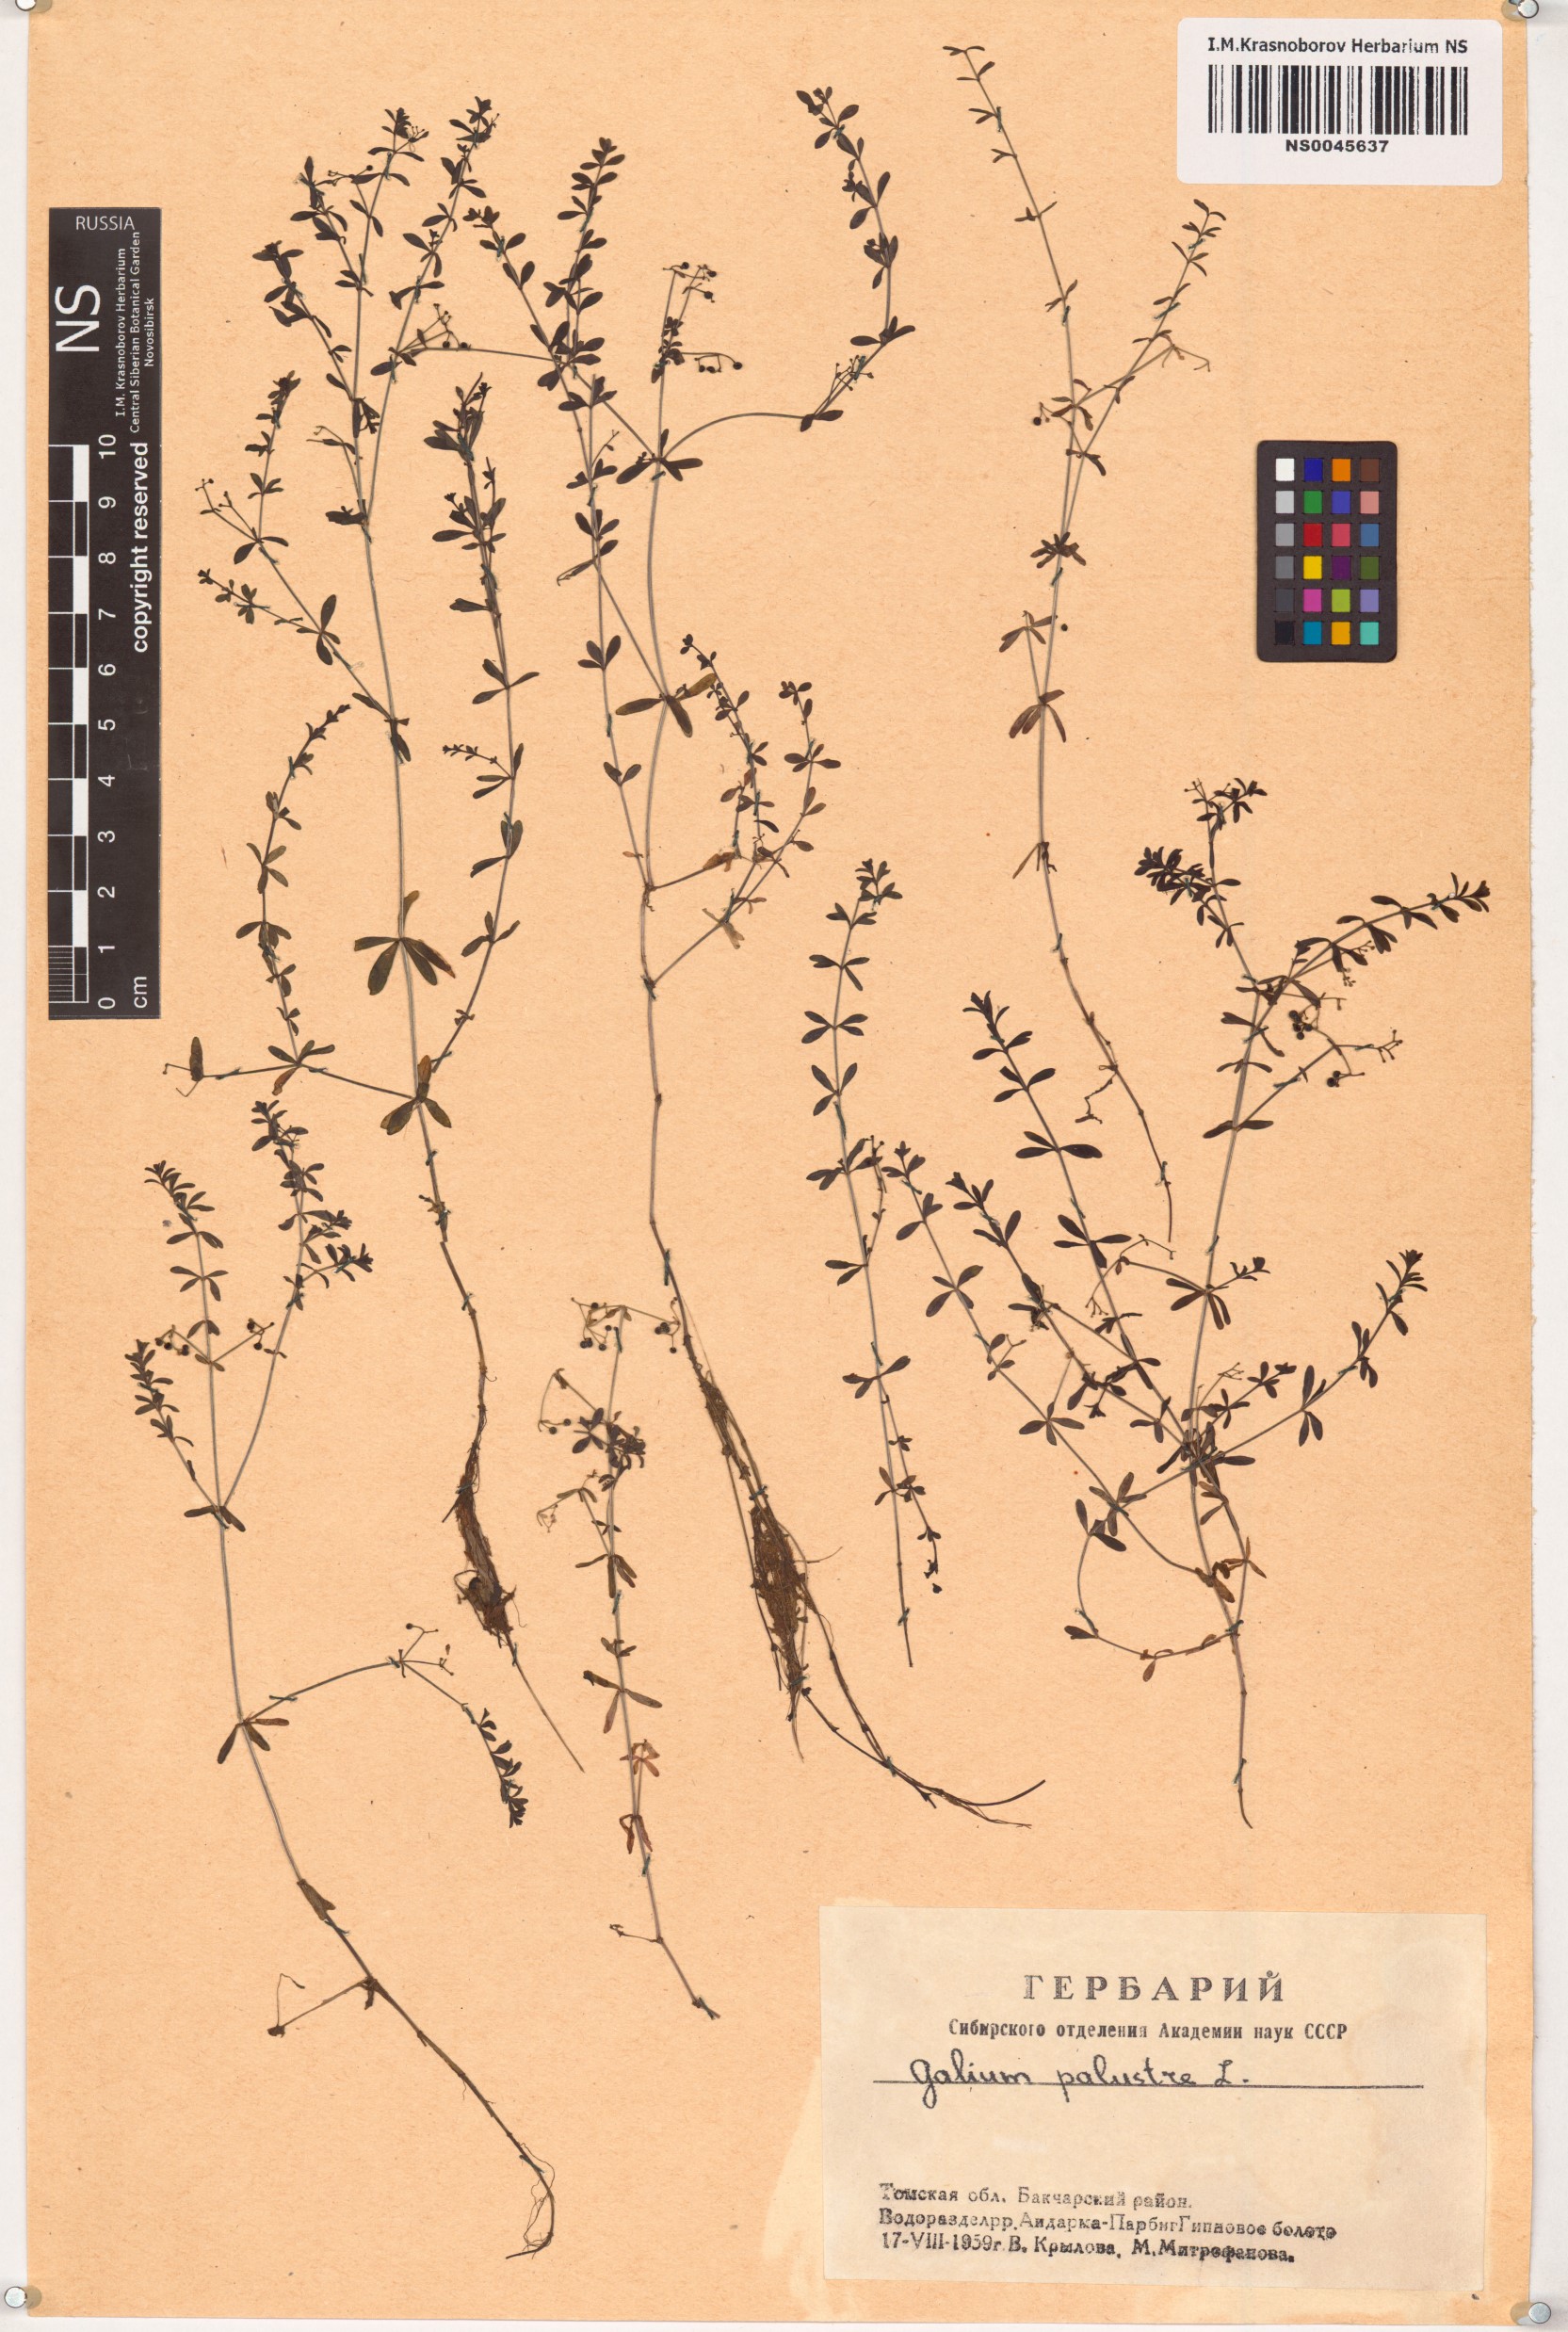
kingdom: Plantae
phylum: Tracheophyta
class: Magnoliopsida
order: Gentianales
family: Rubiaceae
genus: Galium
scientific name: Galium palustre
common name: Common marsh-bedstraw
